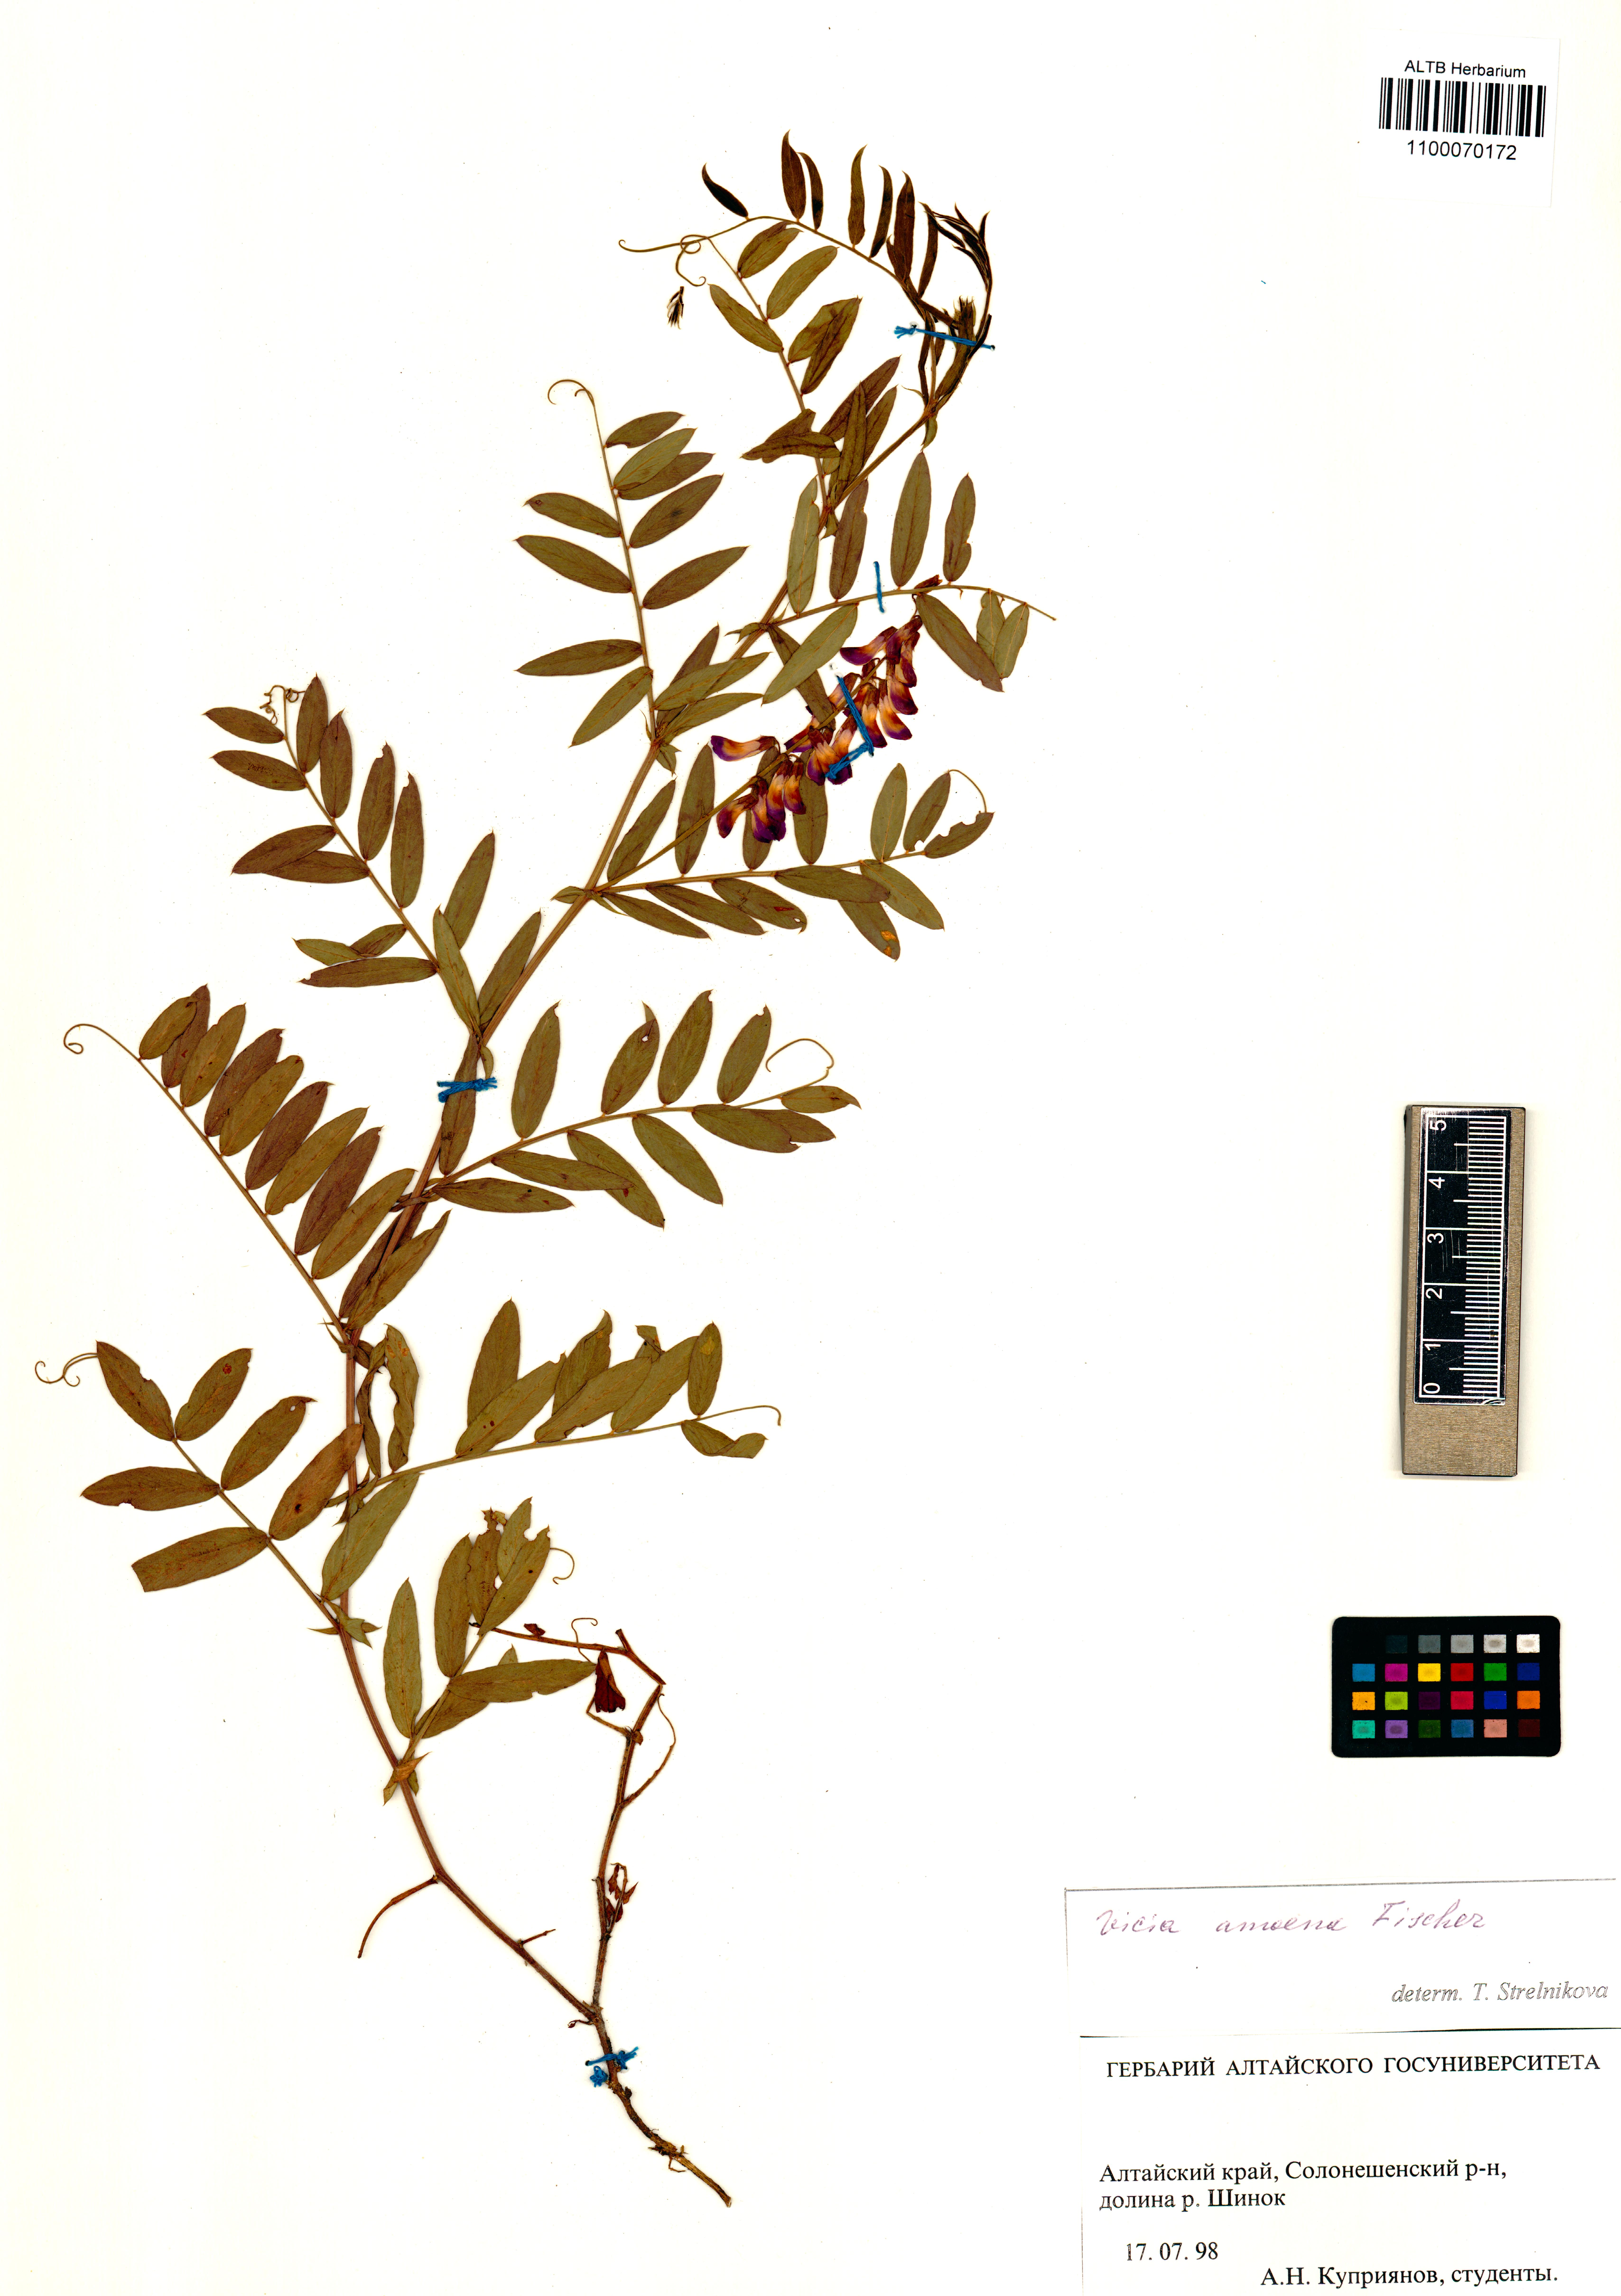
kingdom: Plantae
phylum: Tracheophyta
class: Magnoliopsida
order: Fabales
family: Fabaceae
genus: Vicia
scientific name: Vicia amoena
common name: Cheder ebs
